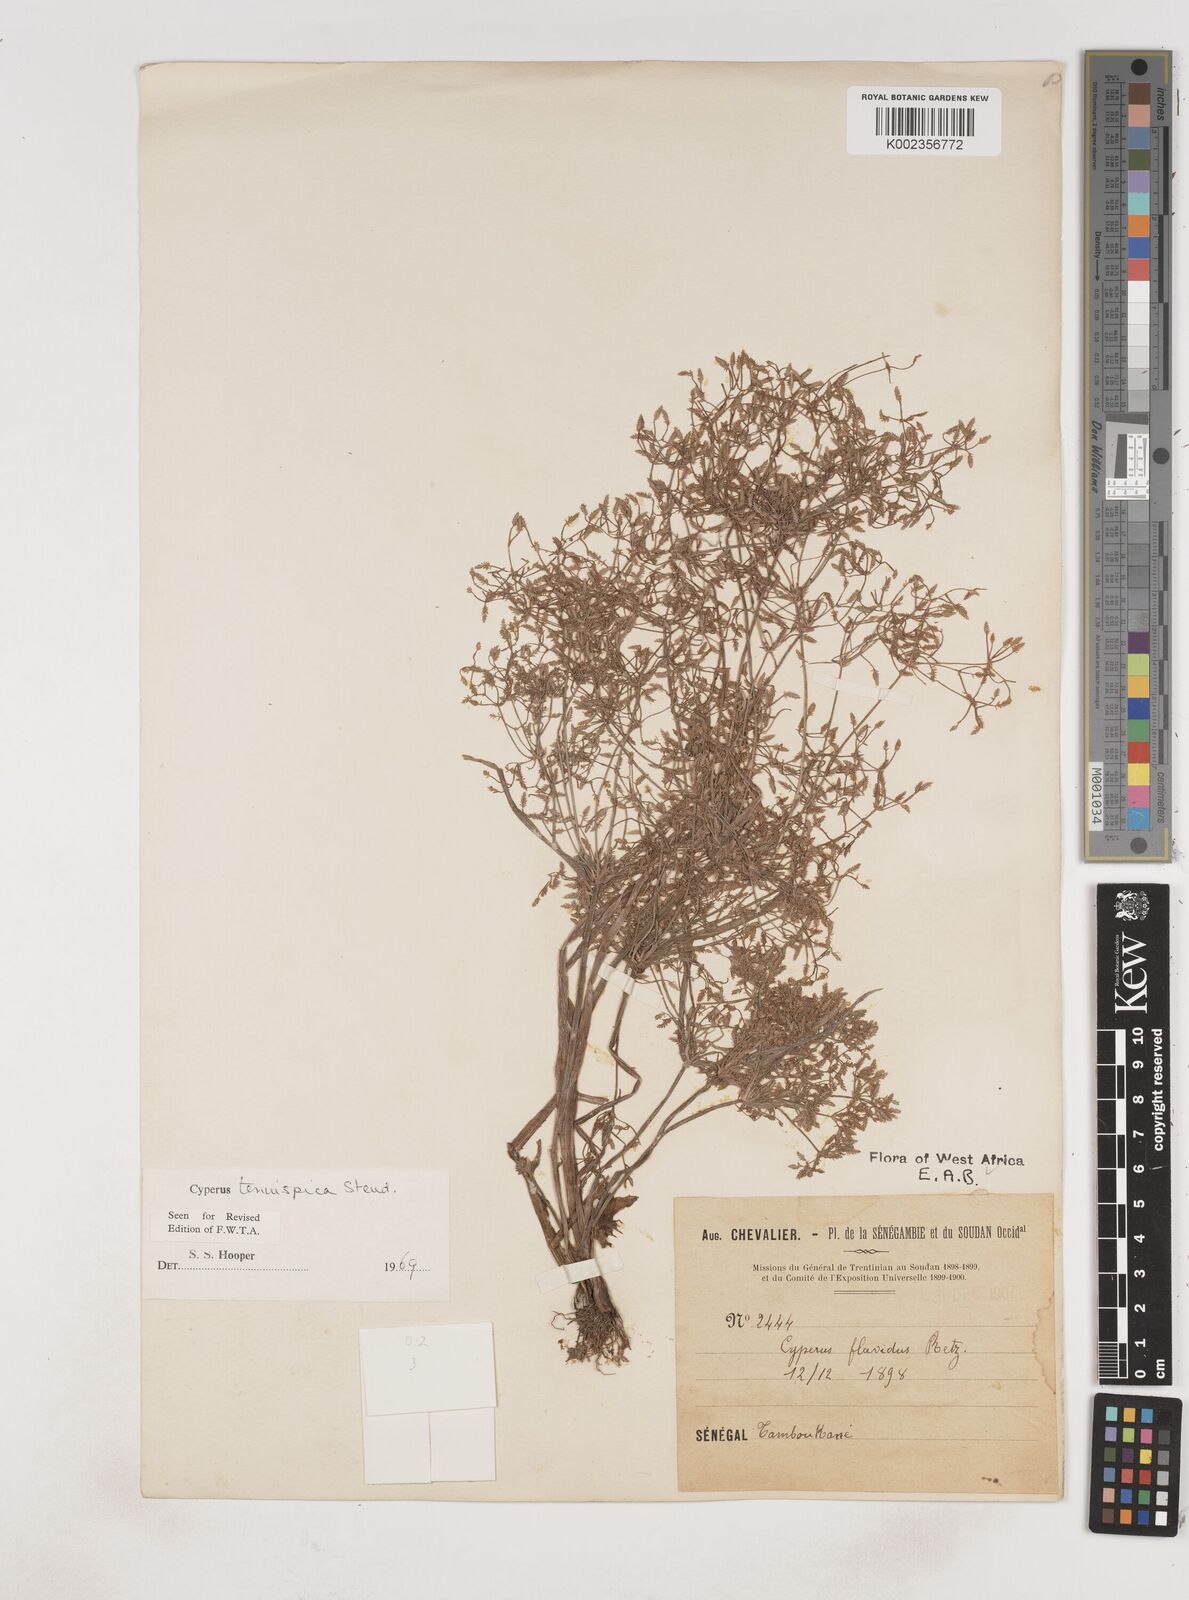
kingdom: Plantae
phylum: Tracheophyta
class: Liliopsida
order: Poales
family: Cyperaceae
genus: Cyperus
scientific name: Cyperus tenuispica
